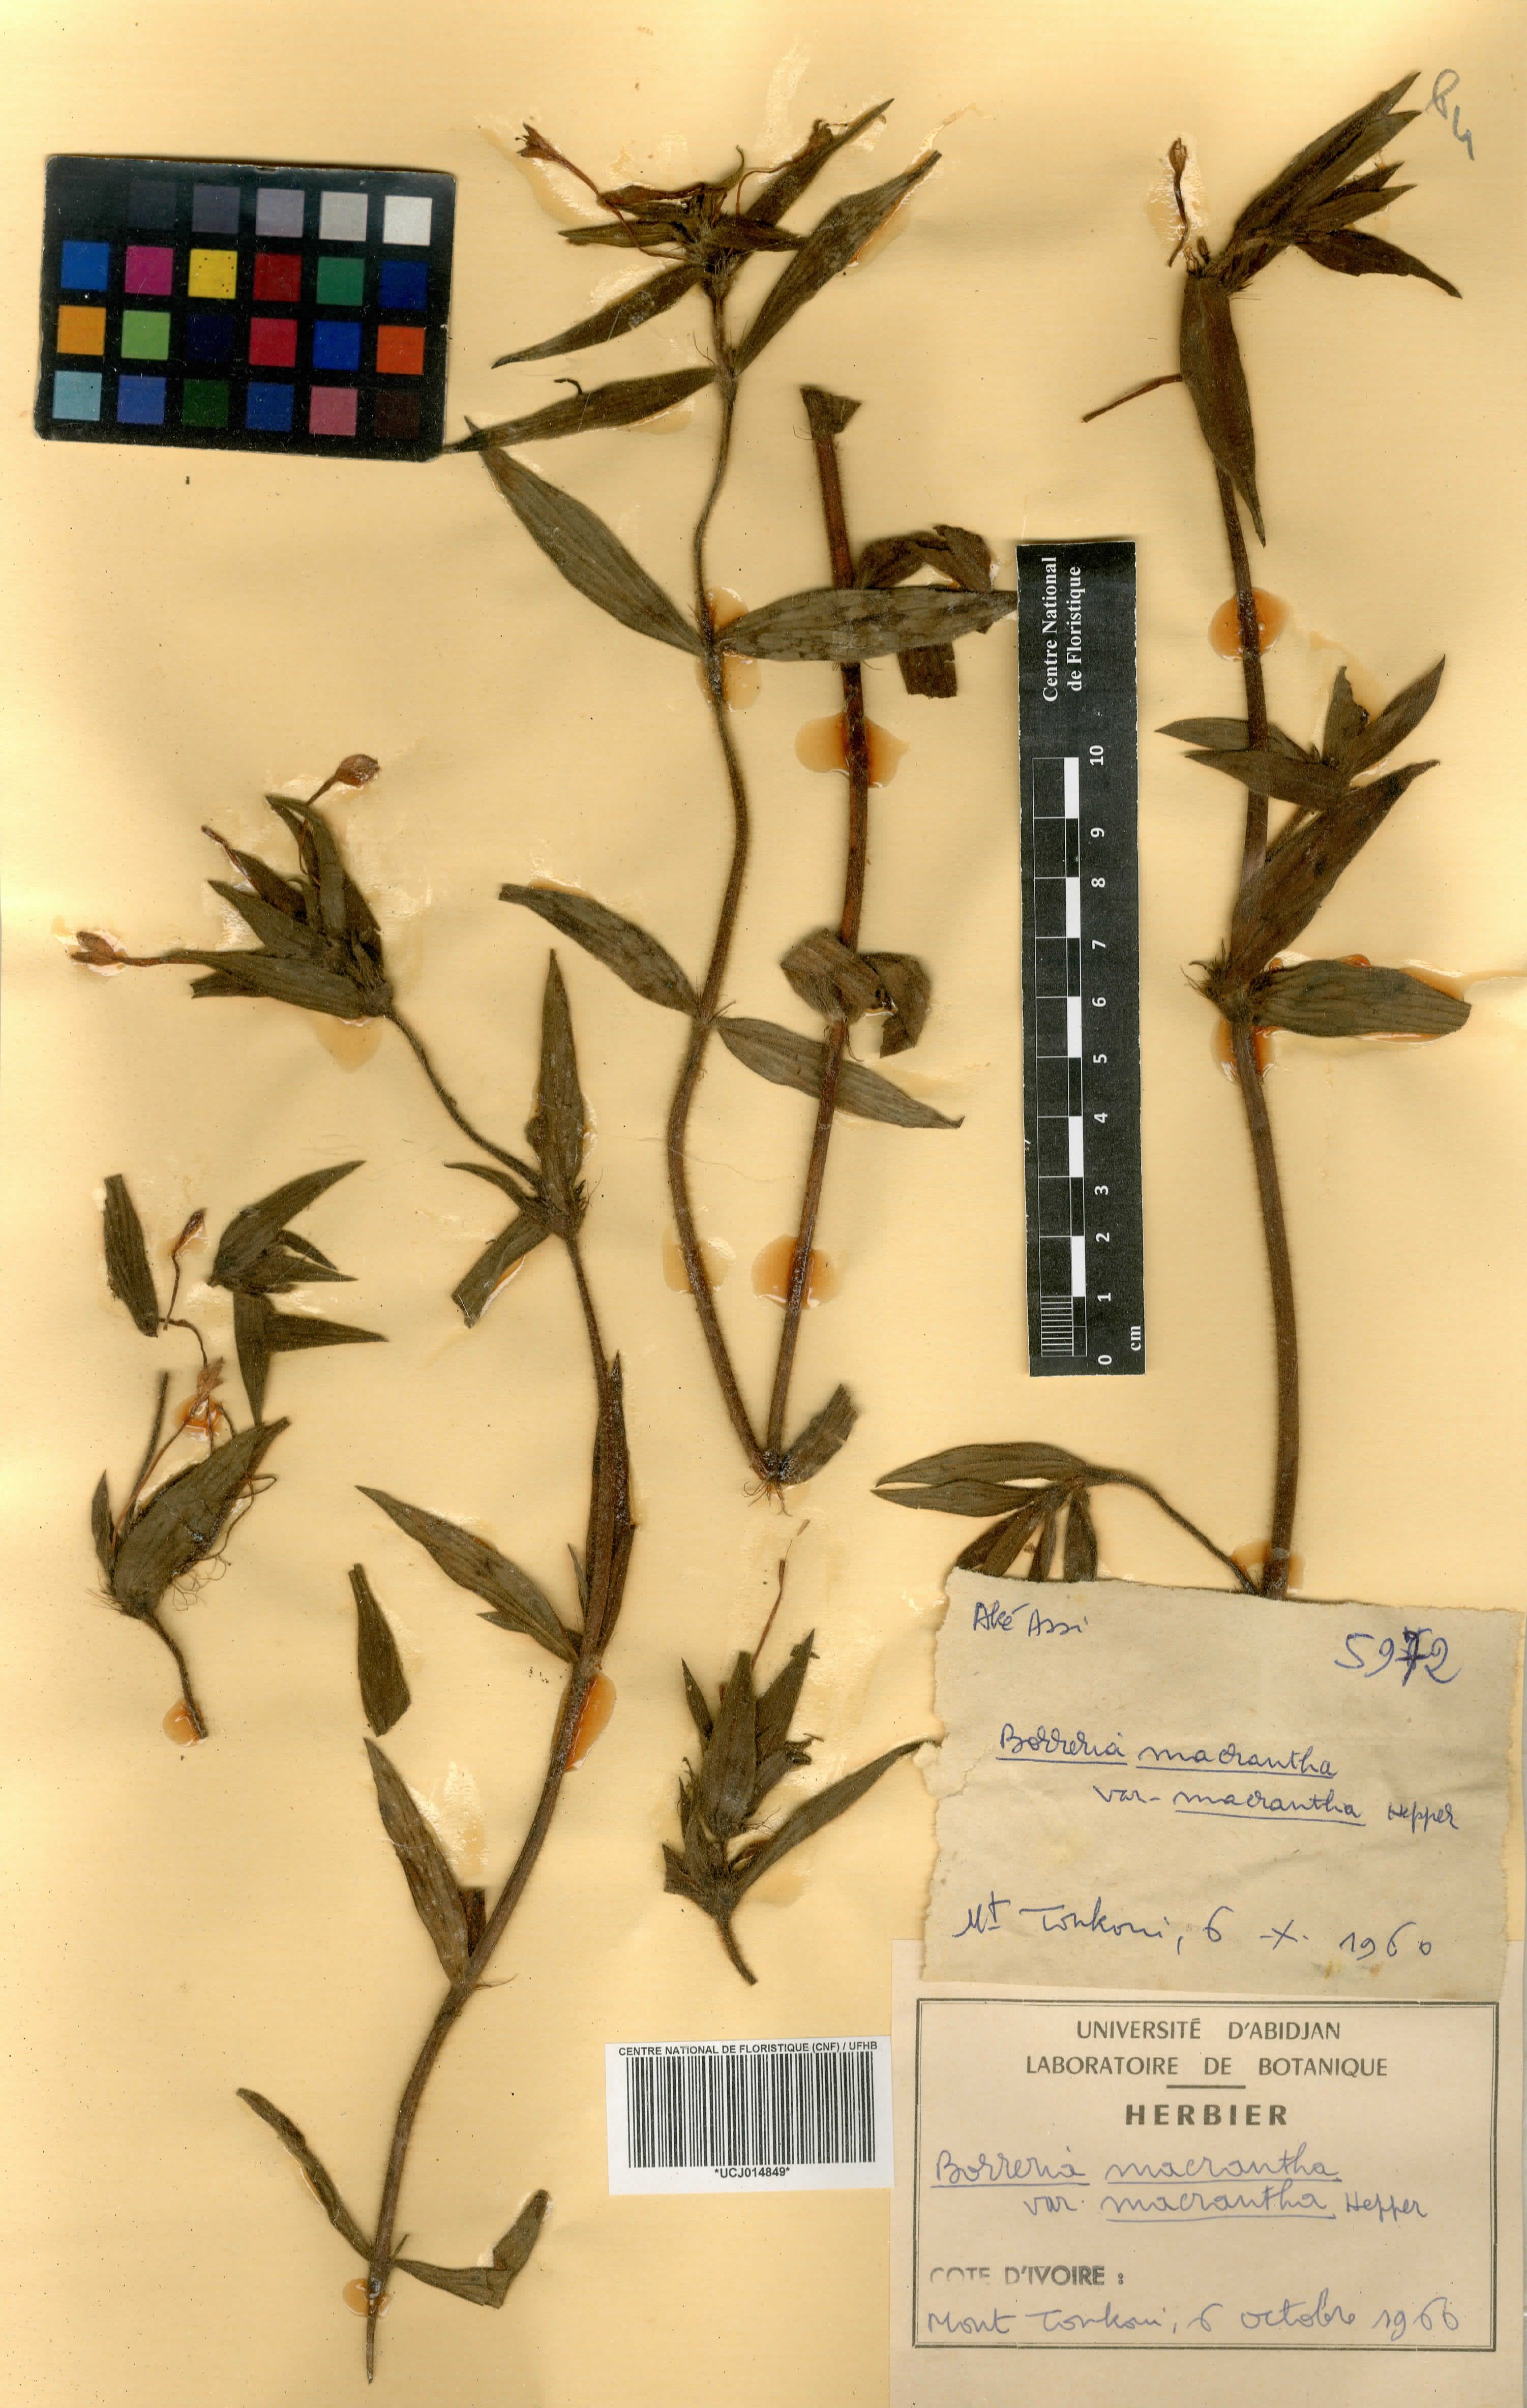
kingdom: Plantae
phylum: Tracheophyta
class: Magnoliopsida
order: Gentianales
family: Rubiaceae
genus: Spermacoce
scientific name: Spermacoce ivorensis
